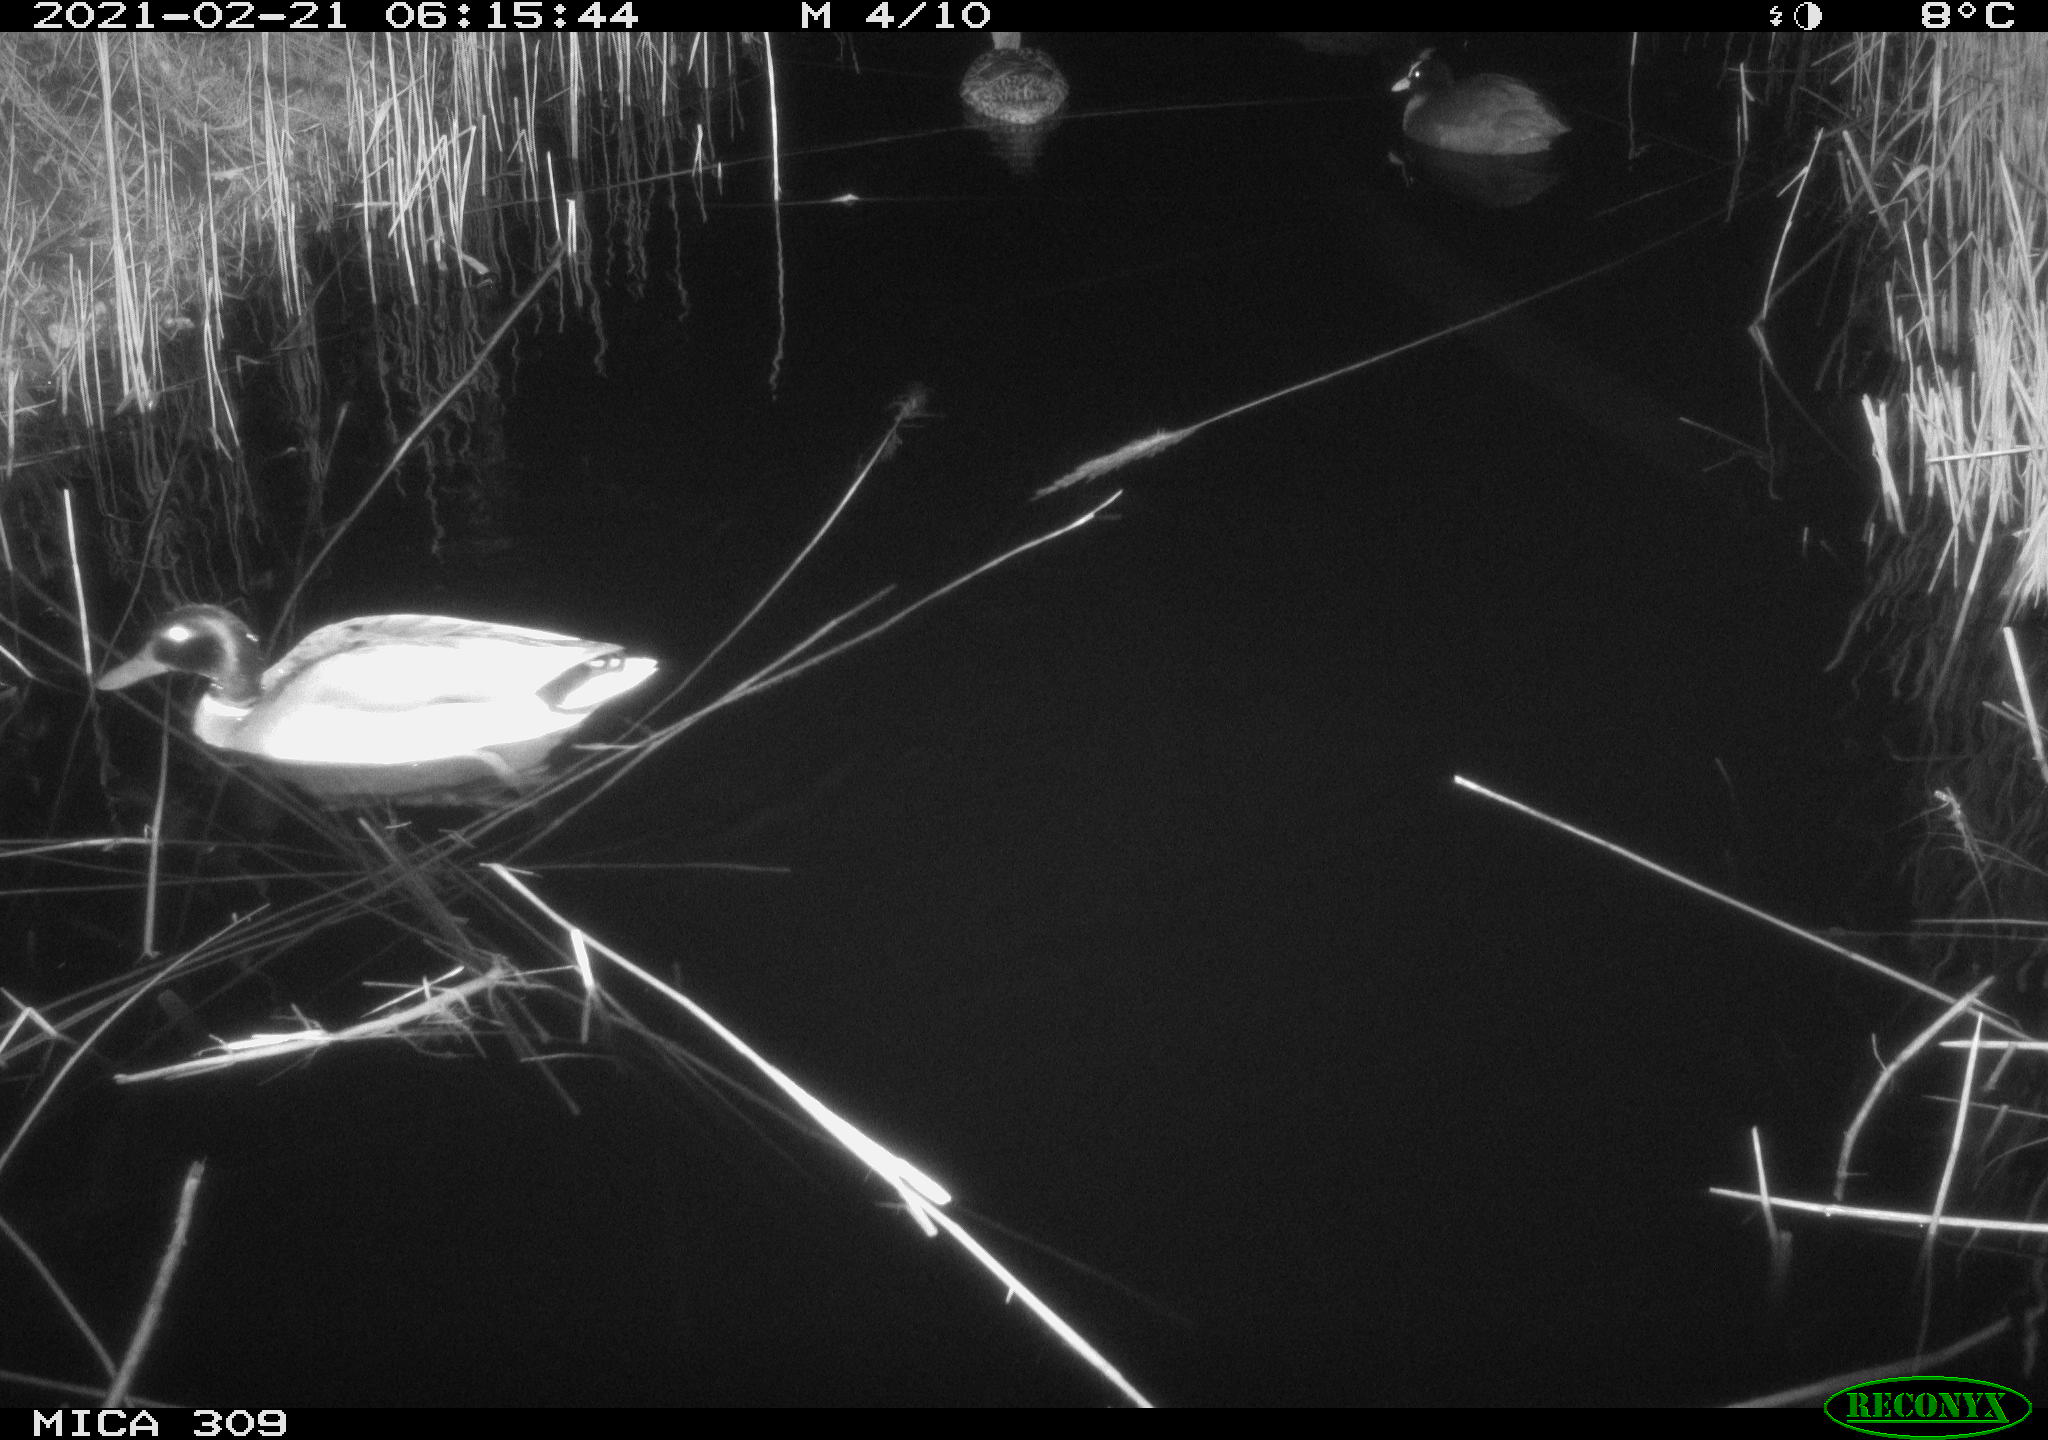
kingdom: Animalia
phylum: Chordata
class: Aves
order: Anseriformes
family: Anatidae
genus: Anas
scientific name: Anas platyrhynchos
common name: Mallard
